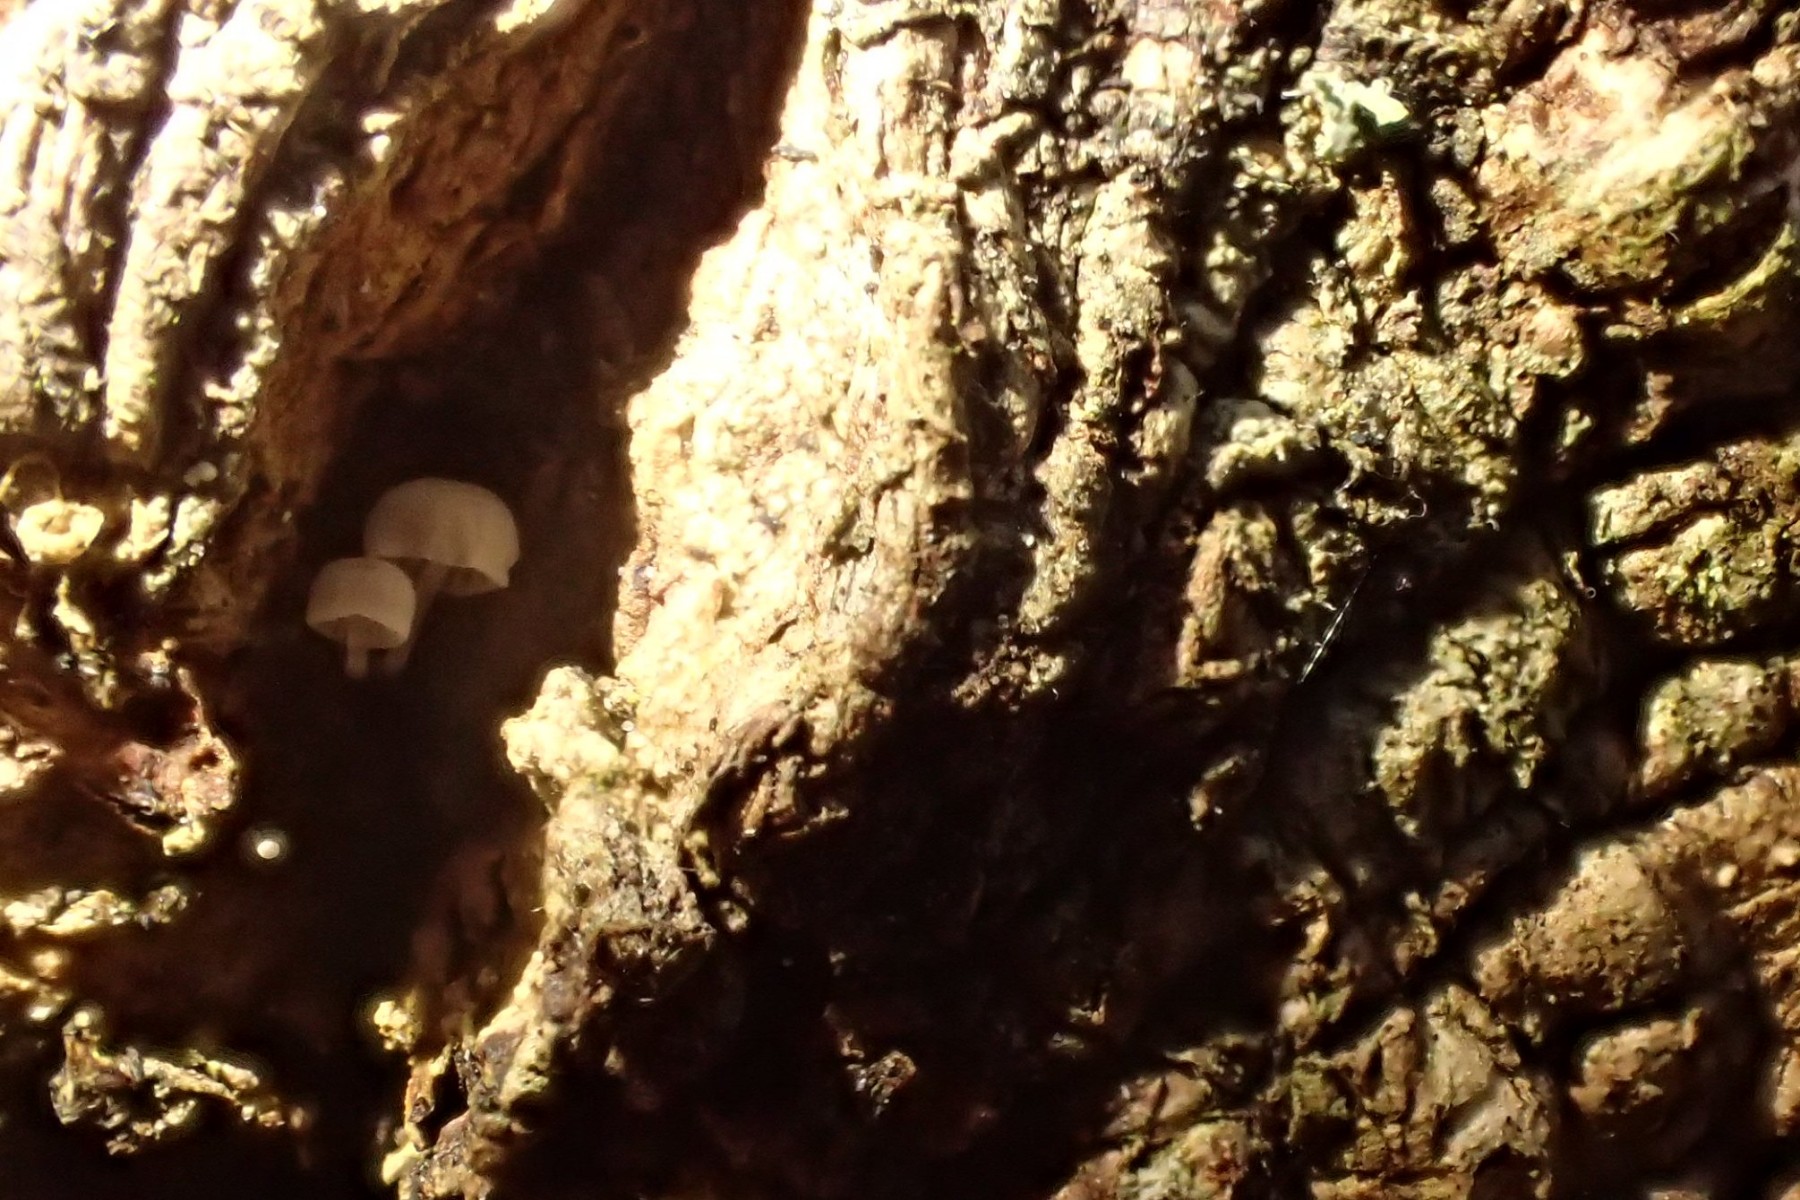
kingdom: Fungi
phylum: Basidiomycota
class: Agaricomycetes
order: Agaricales
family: Mycenaceae
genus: Mycena
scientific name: Mycena supina
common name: olivenbrun bark-huesvamp
